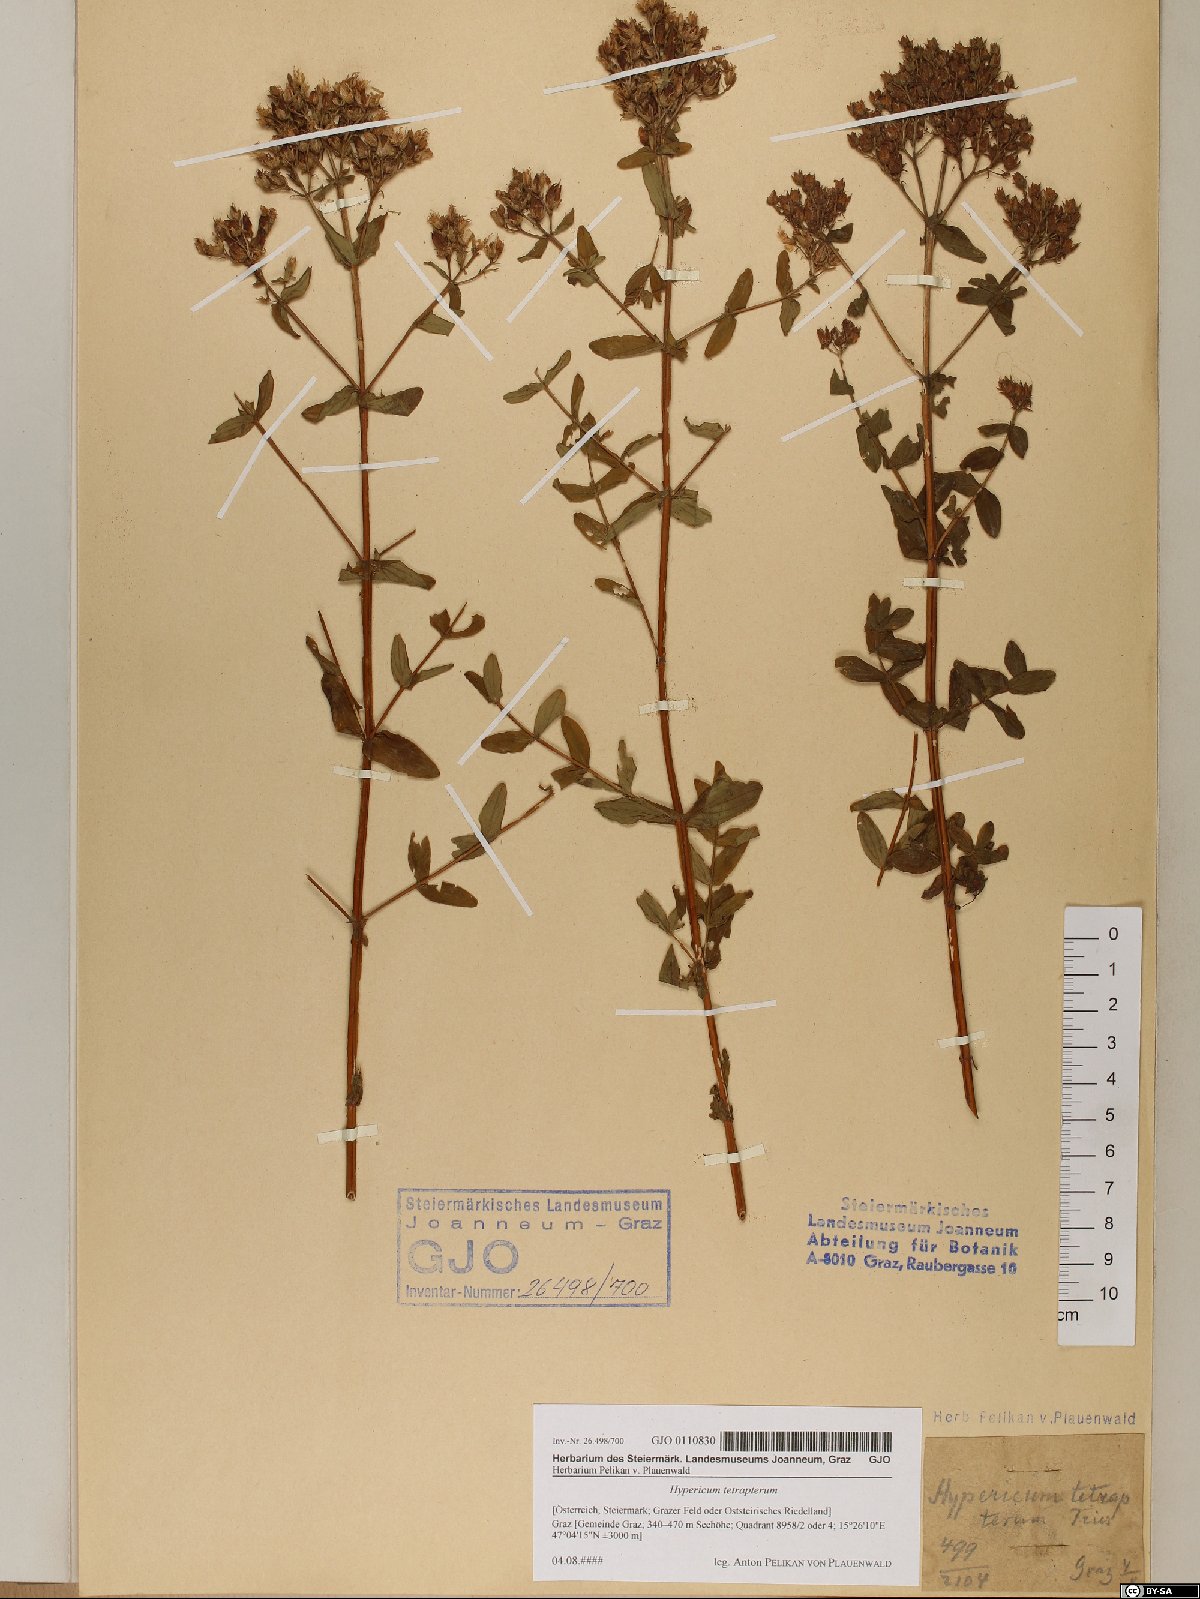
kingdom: Plantae
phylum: Tracheophyta
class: Magnoliopsida
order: Malpighiales
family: Hypericaceae
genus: Hypericum
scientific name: Hypericum tetrapterum
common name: Square-stalked st. john's-wort
